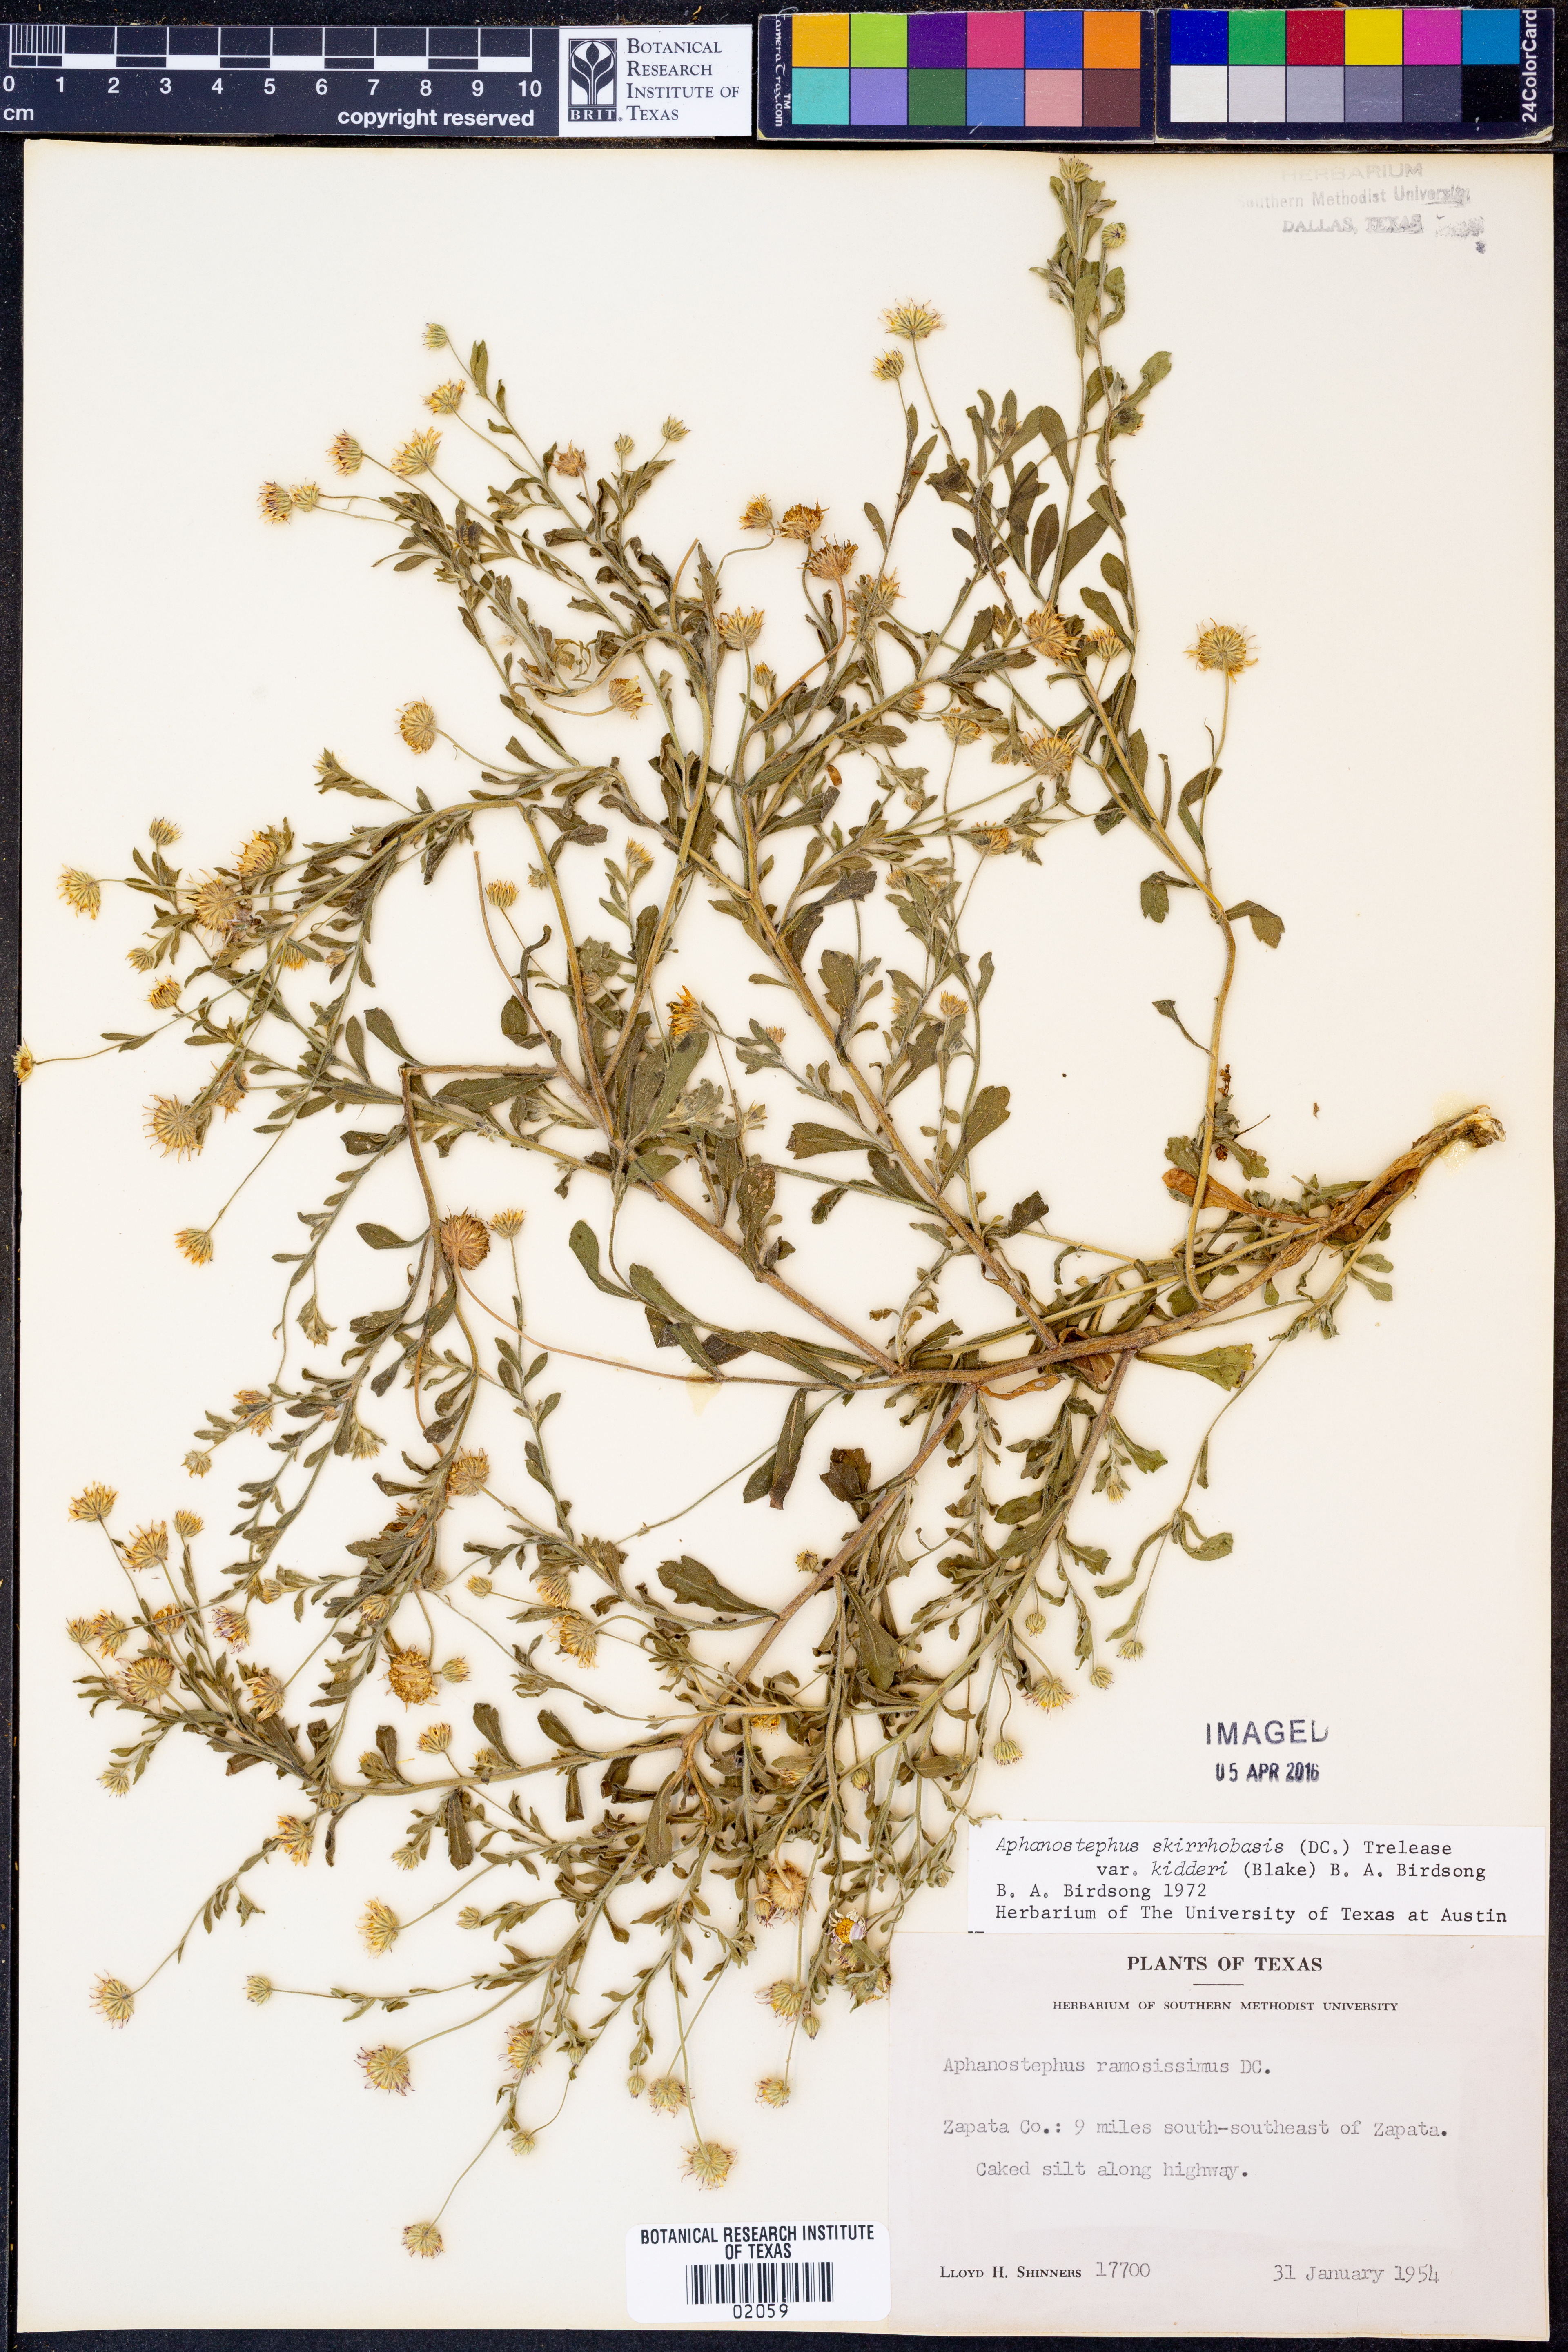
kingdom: Plantae
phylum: Tracheophyta
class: Magnoliopsida
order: Asterales
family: Asteraceae
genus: Aphanostephus
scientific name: Aphanostephus skirrhobasis
